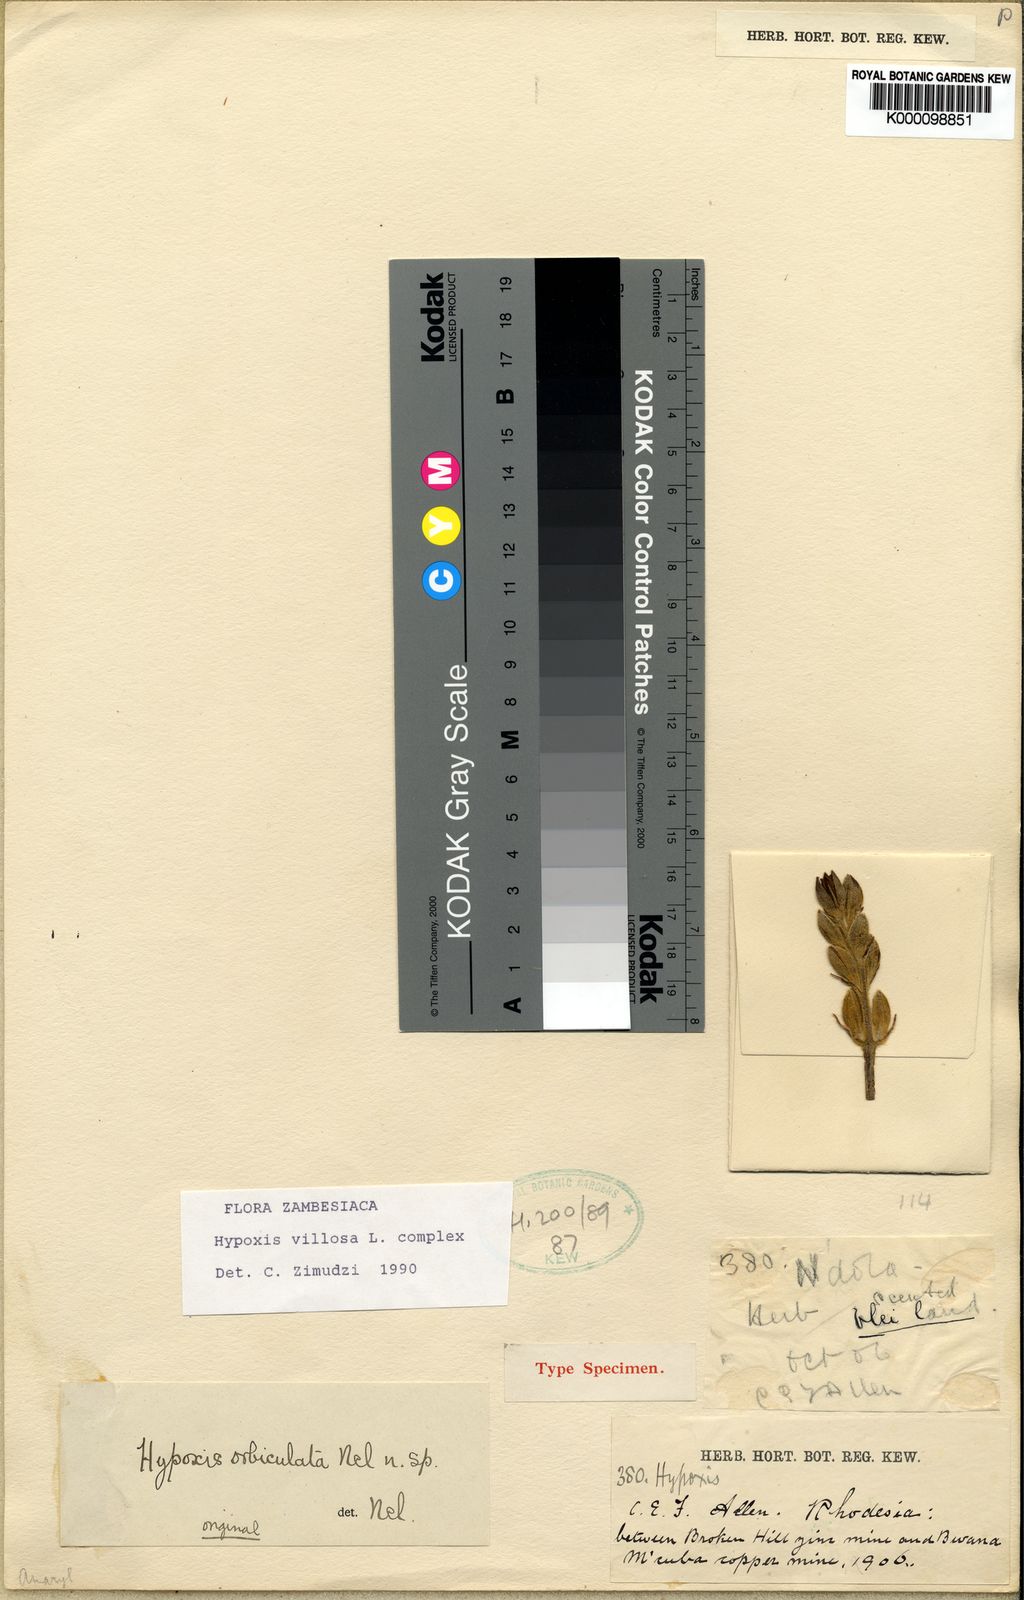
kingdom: Plantae
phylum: Tracheophyta
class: Liliopsida
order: Asparagales
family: Hypoxidaceae
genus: Hypoxis
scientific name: Hypoxis goetzei
